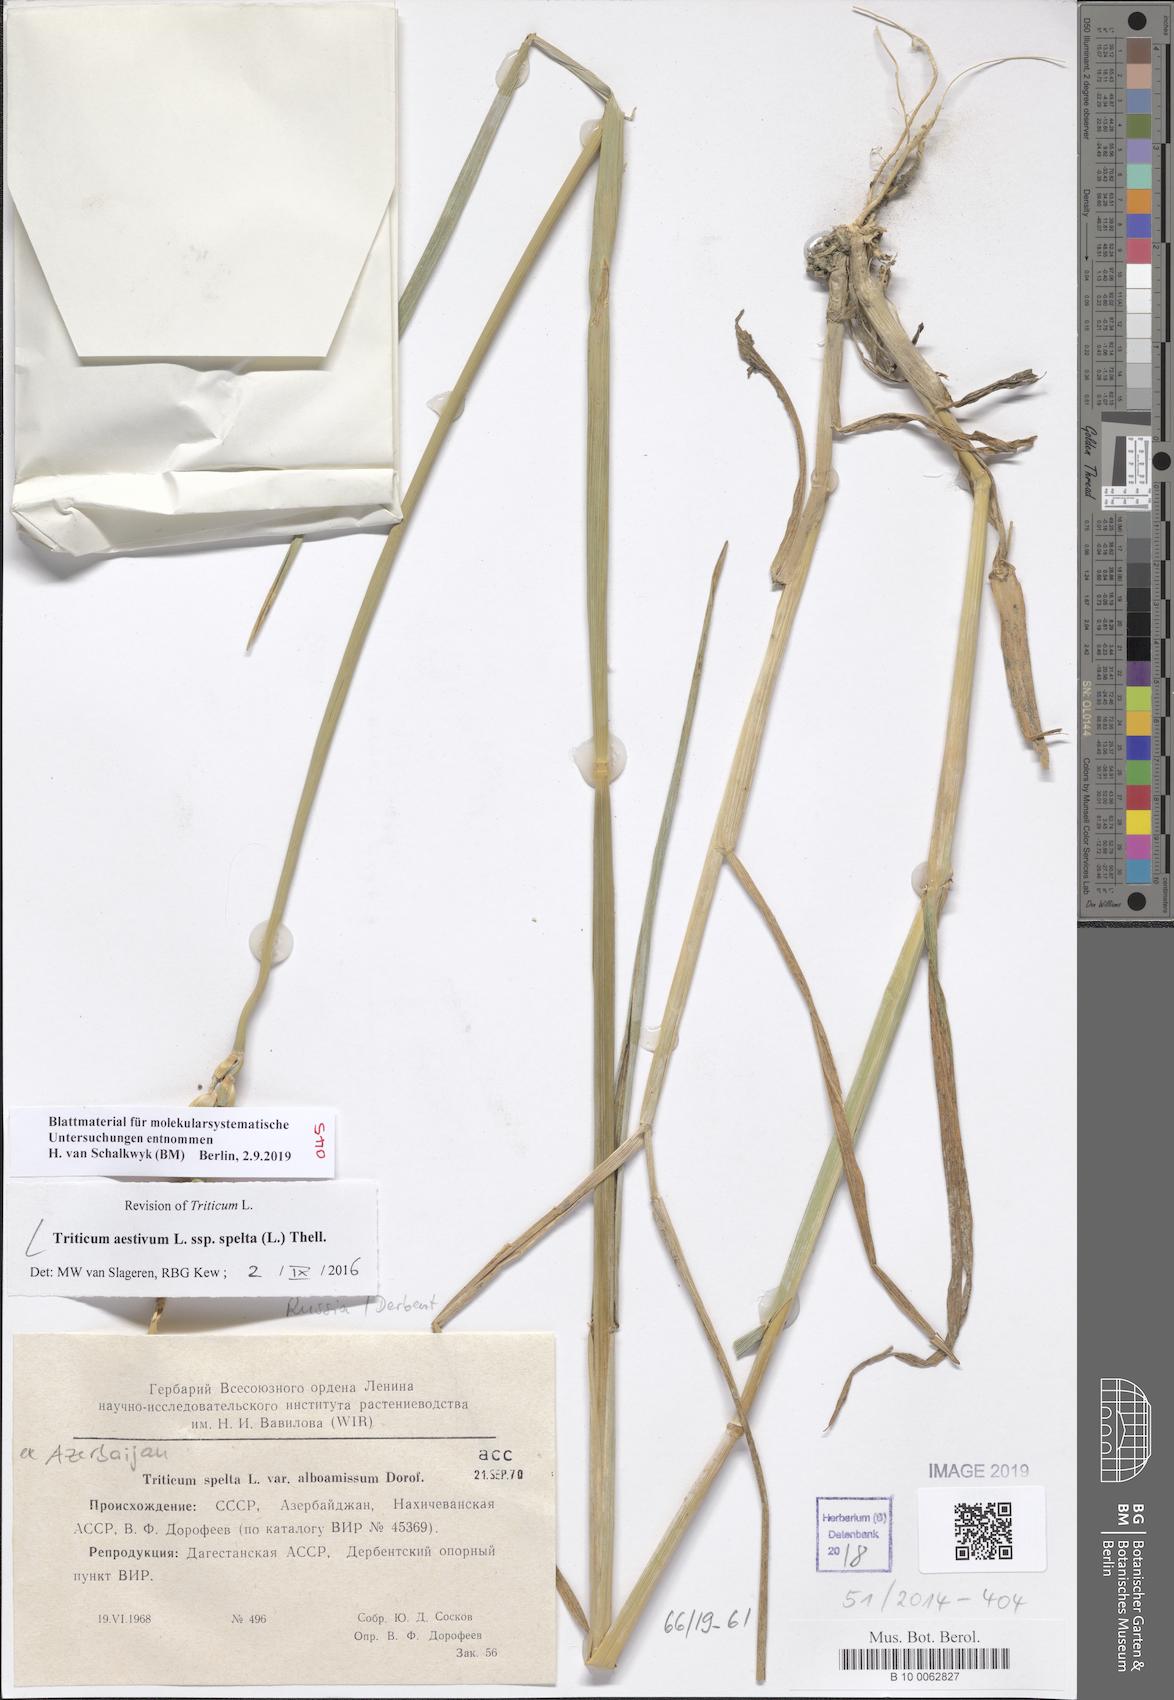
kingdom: Plantae
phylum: Tracheophyta
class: Liliopsida
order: Poales
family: Poaceae
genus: Triticum
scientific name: Triticum aestivum
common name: Common wheat
